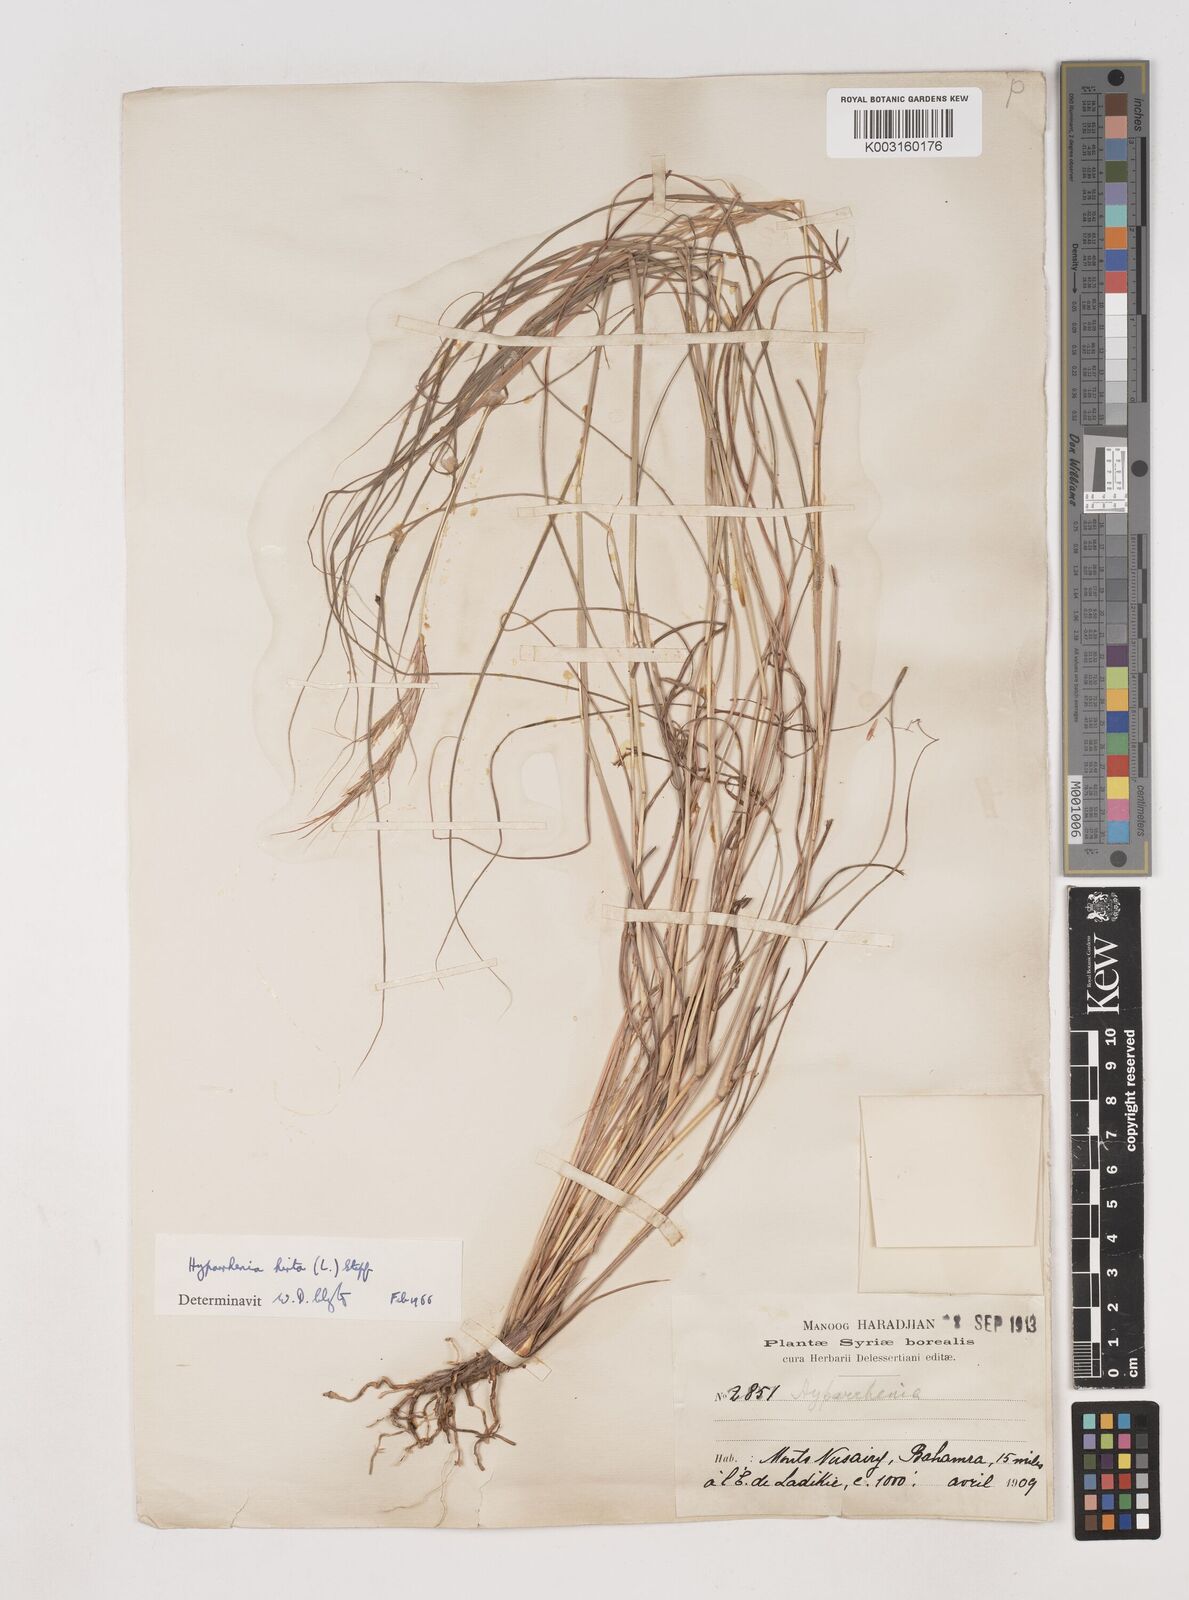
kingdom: Plantae
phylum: Tracheophyta
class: Liliopsida
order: Poales
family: Poaceae
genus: Hyparrhenia
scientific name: Hyparrhenia hirta
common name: Thatching grass
